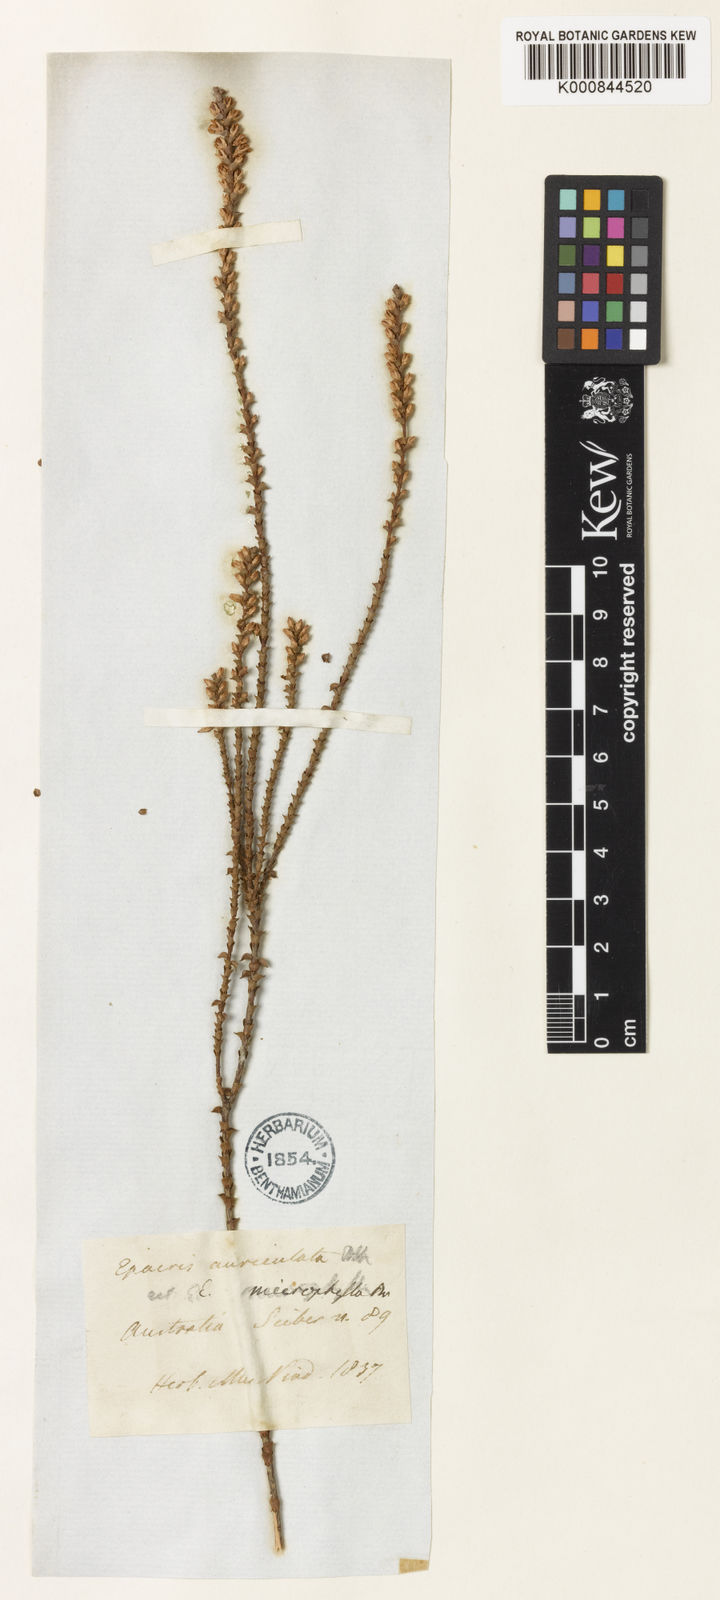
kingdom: Plantae
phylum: Tracheophyta
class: Magnoliopsida
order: Ericales
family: Ericaceae
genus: Epacris
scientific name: Epacris microphylla
